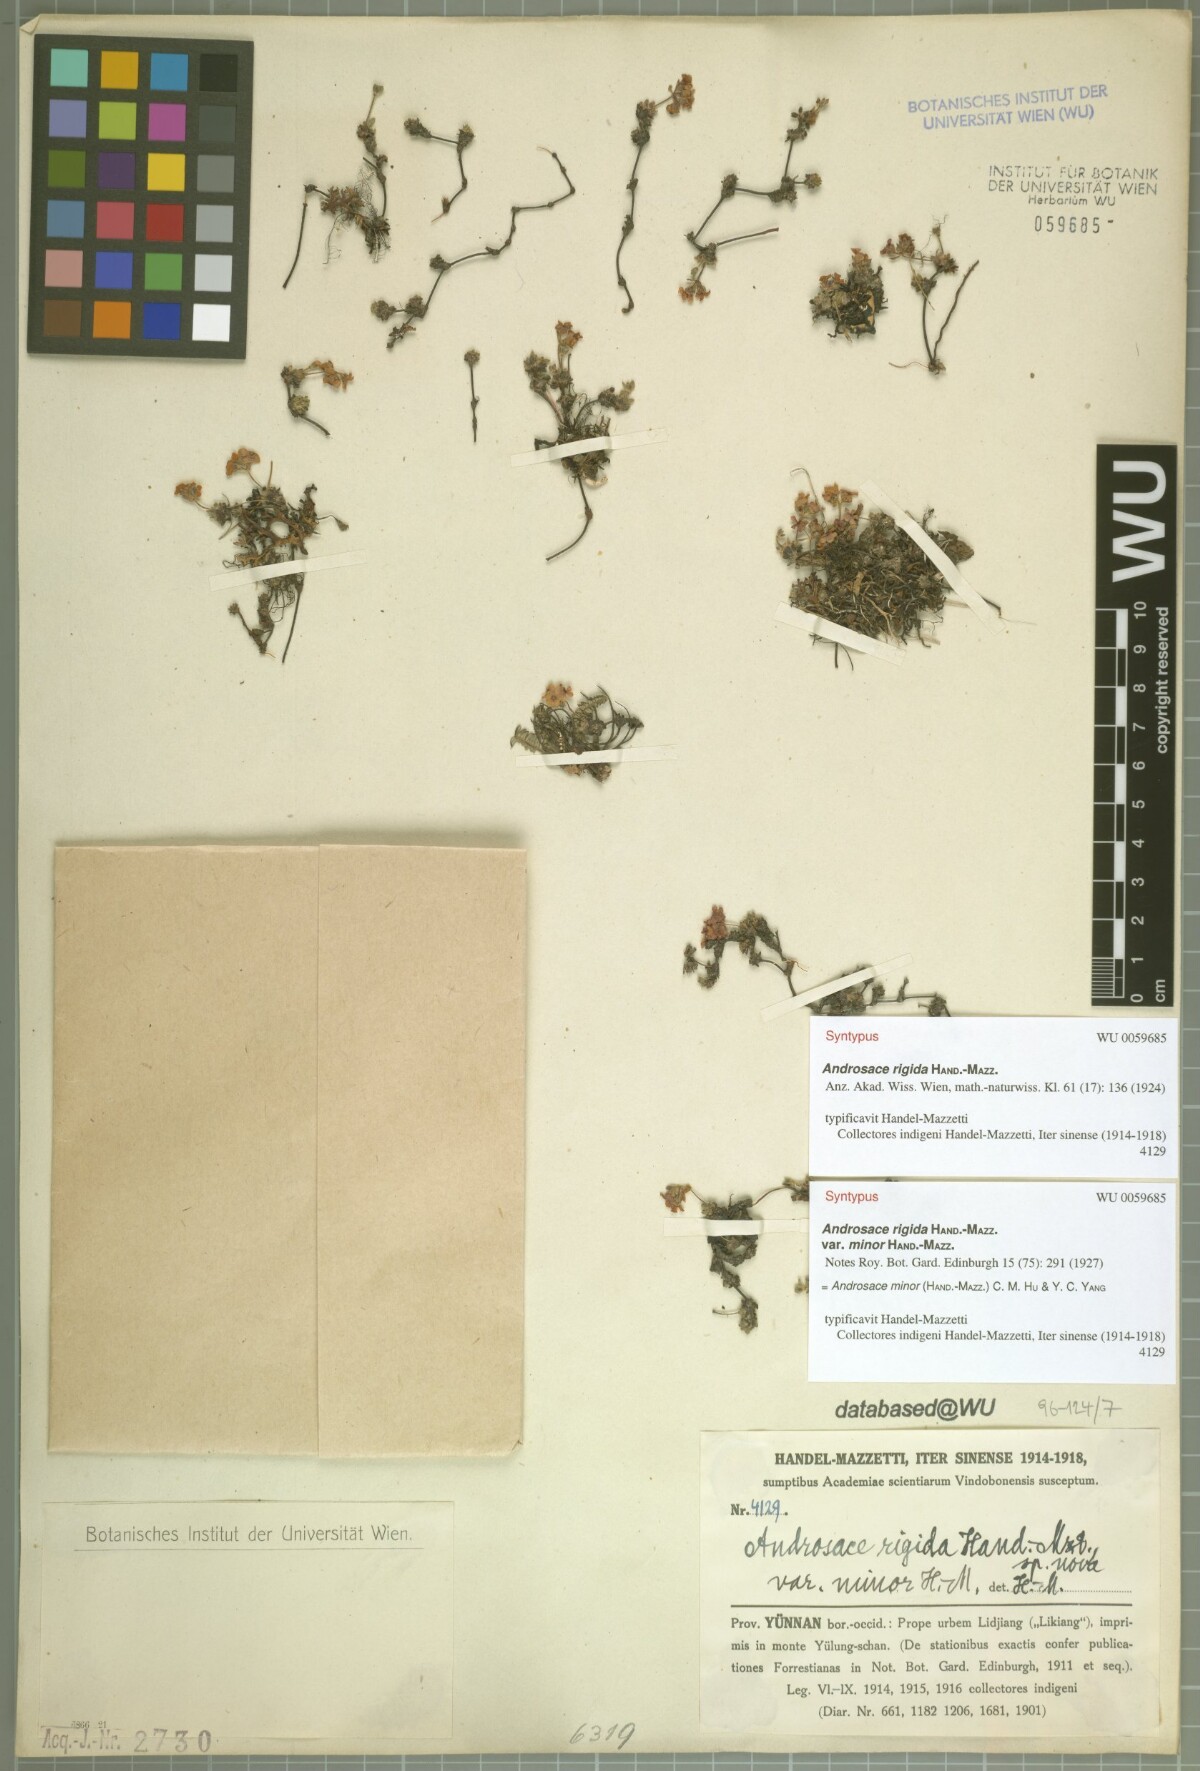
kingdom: Plantae
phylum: Tracheophyta
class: Magnoliopsida
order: Ericales
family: Primulaceae
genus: Androsace
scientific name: Androsace minor
